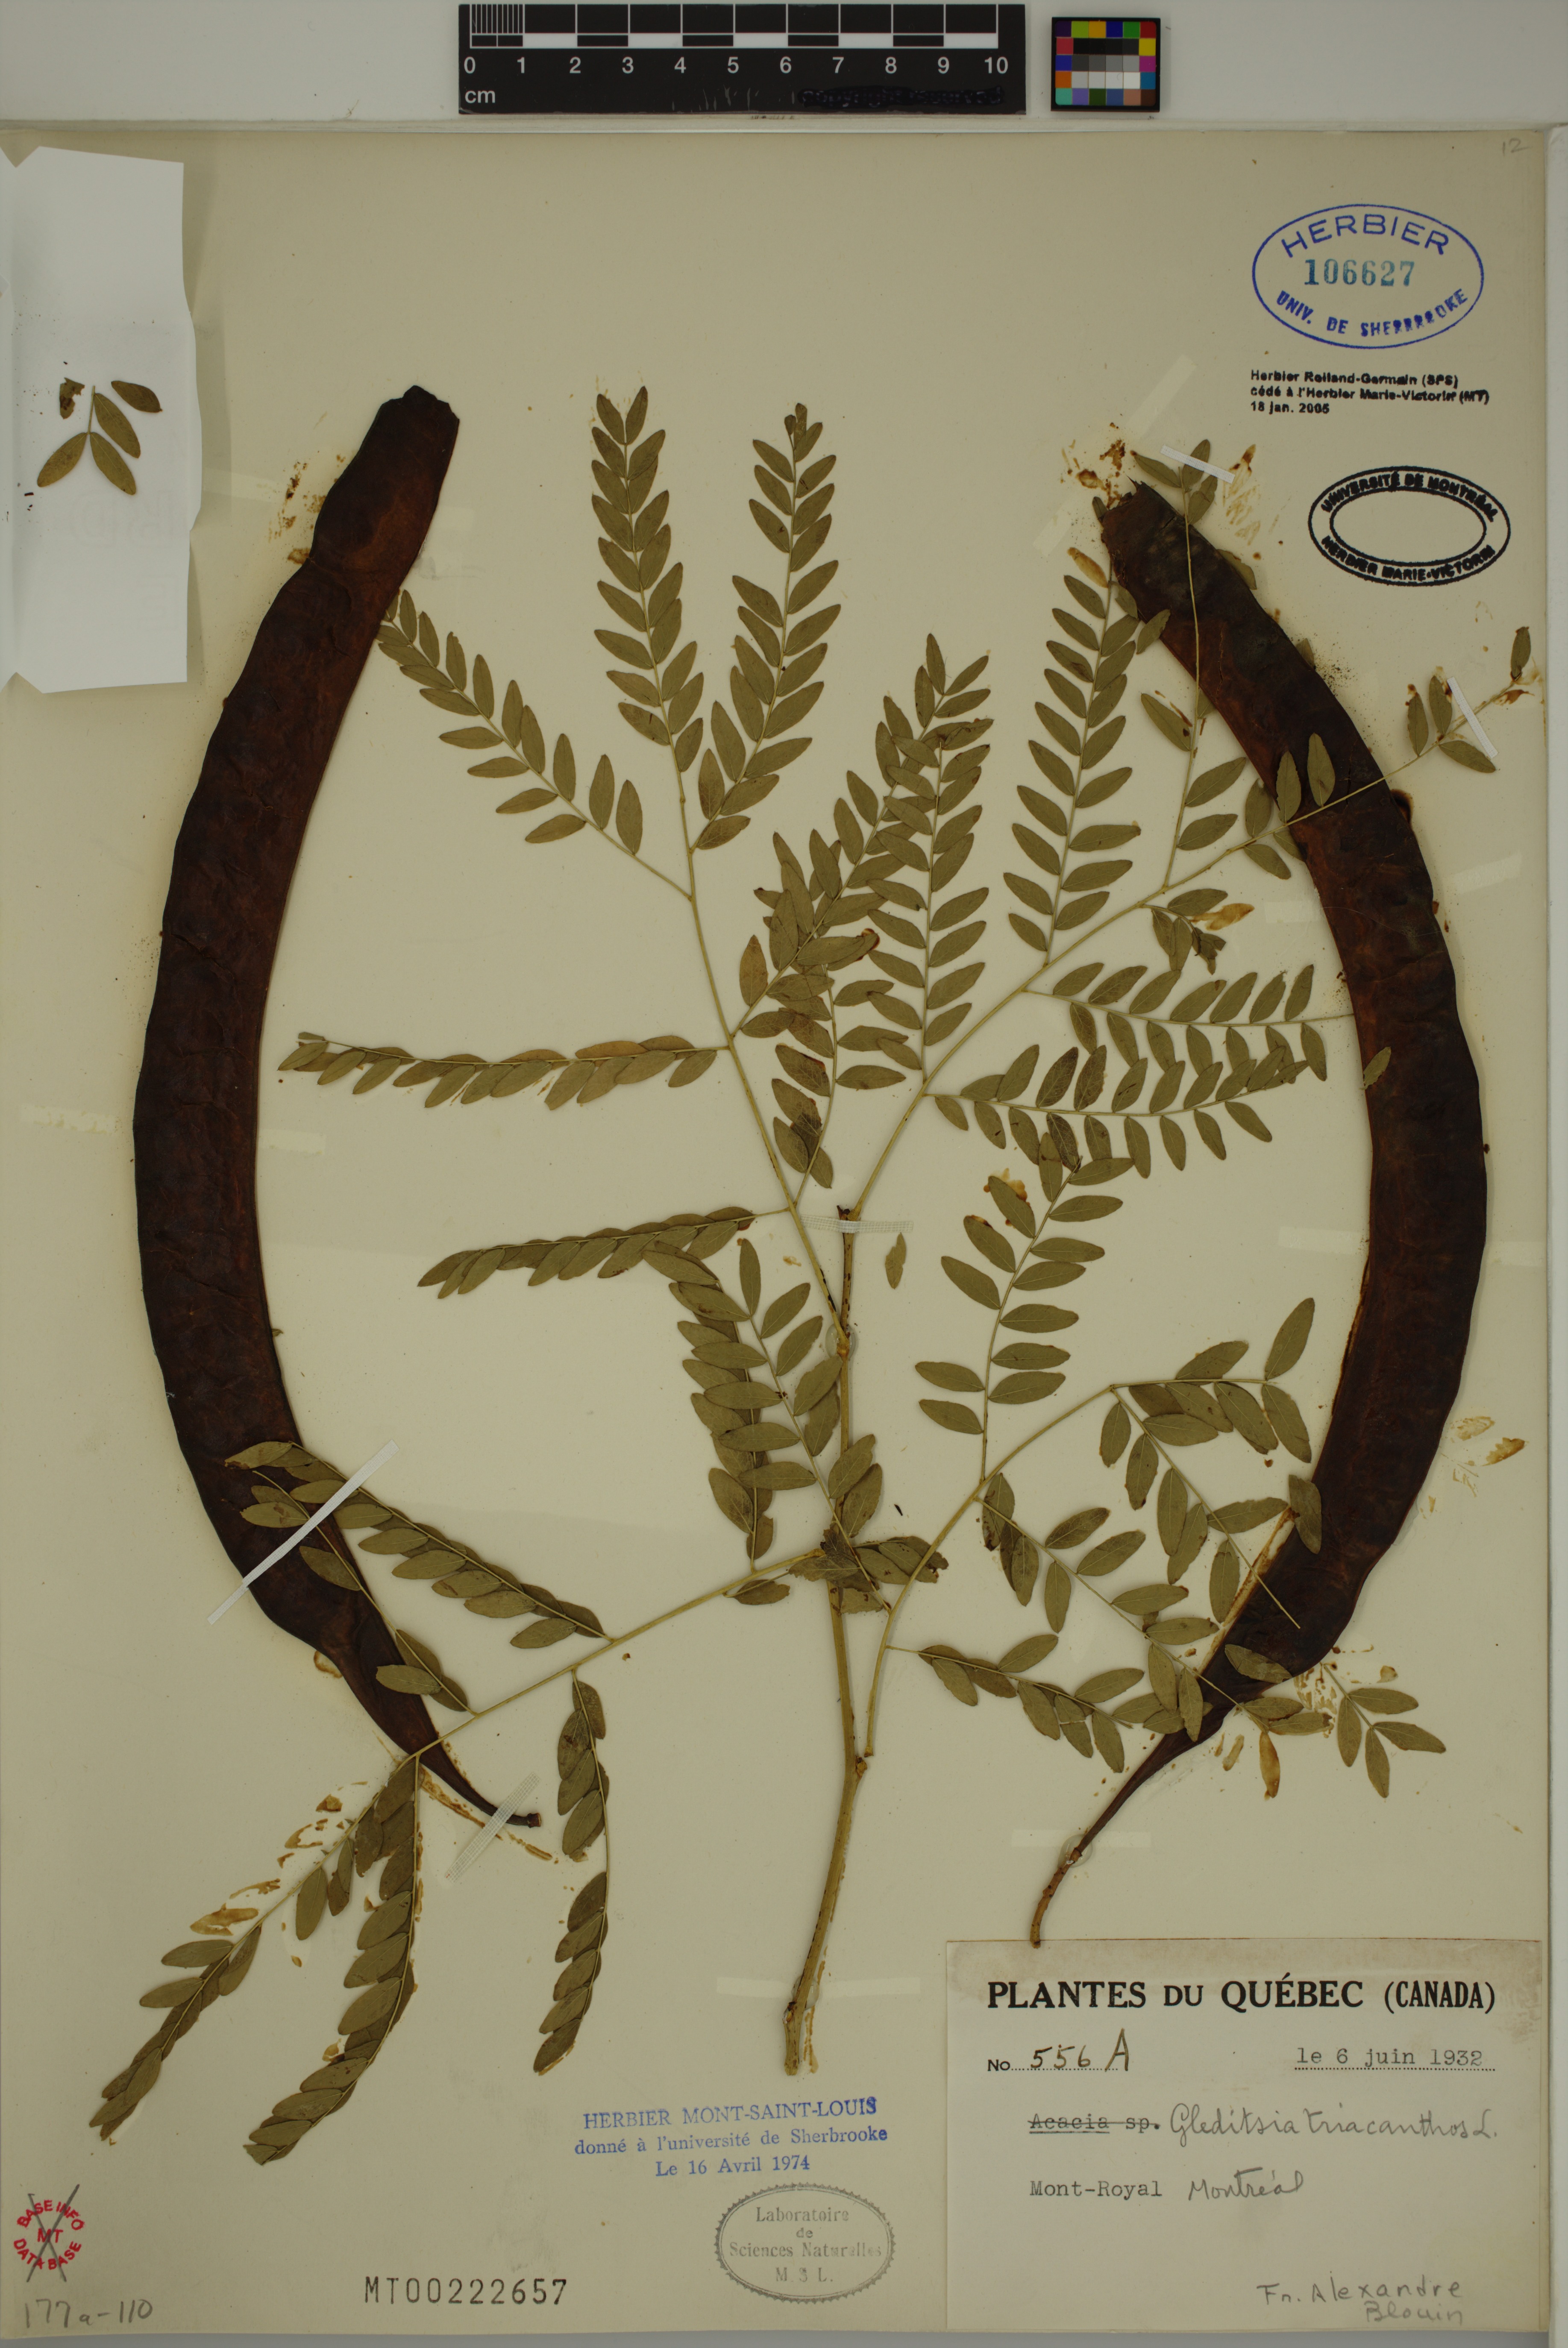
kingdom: Plantae
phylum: Tracheophyta
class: Magnoliopsida
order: Fabales
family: Fabaceae
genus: Gleditsia
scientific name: Gleditsia triacanthos
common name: Common honeylocust
